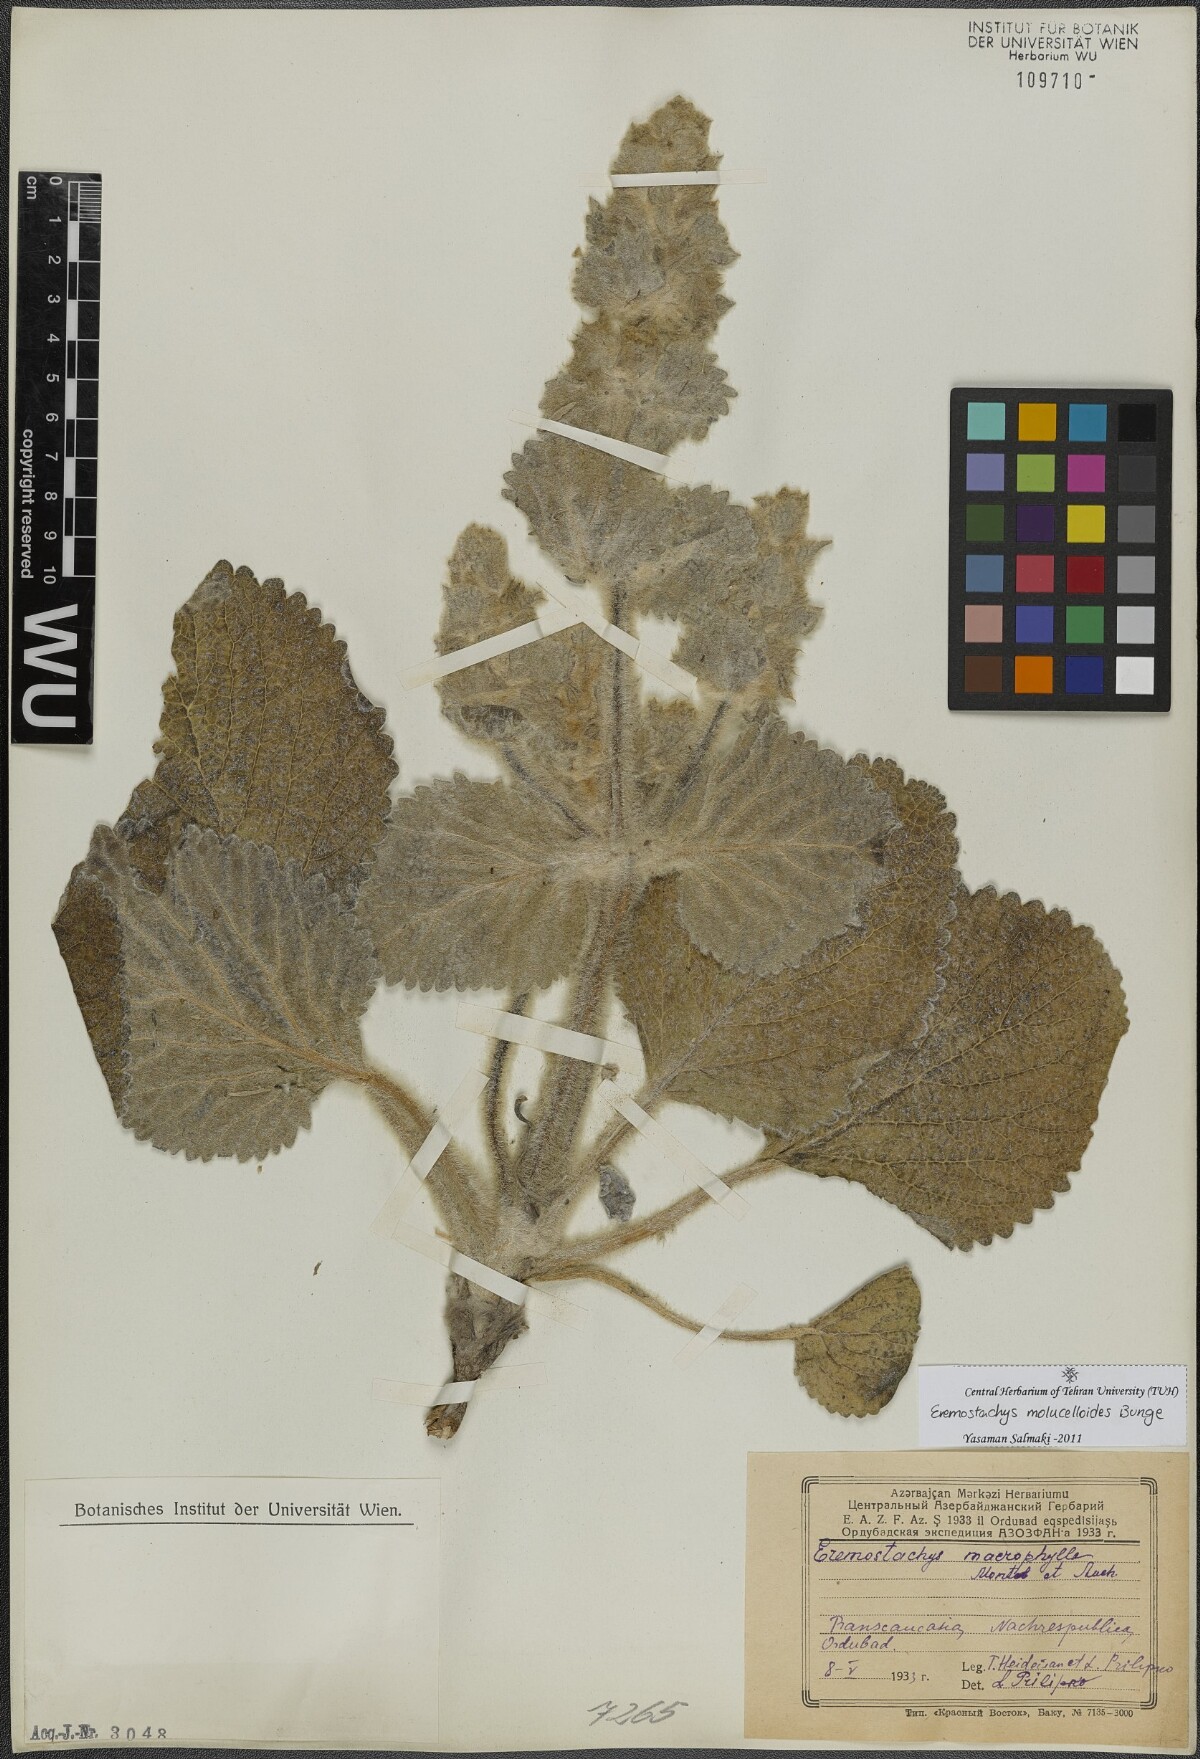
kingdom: Plantae
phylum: Tracheophyta
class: Magnoliopsida
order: Lamiales
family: Lamiaceae
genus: Phlomoides
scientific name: Phlomoides molucelloides
